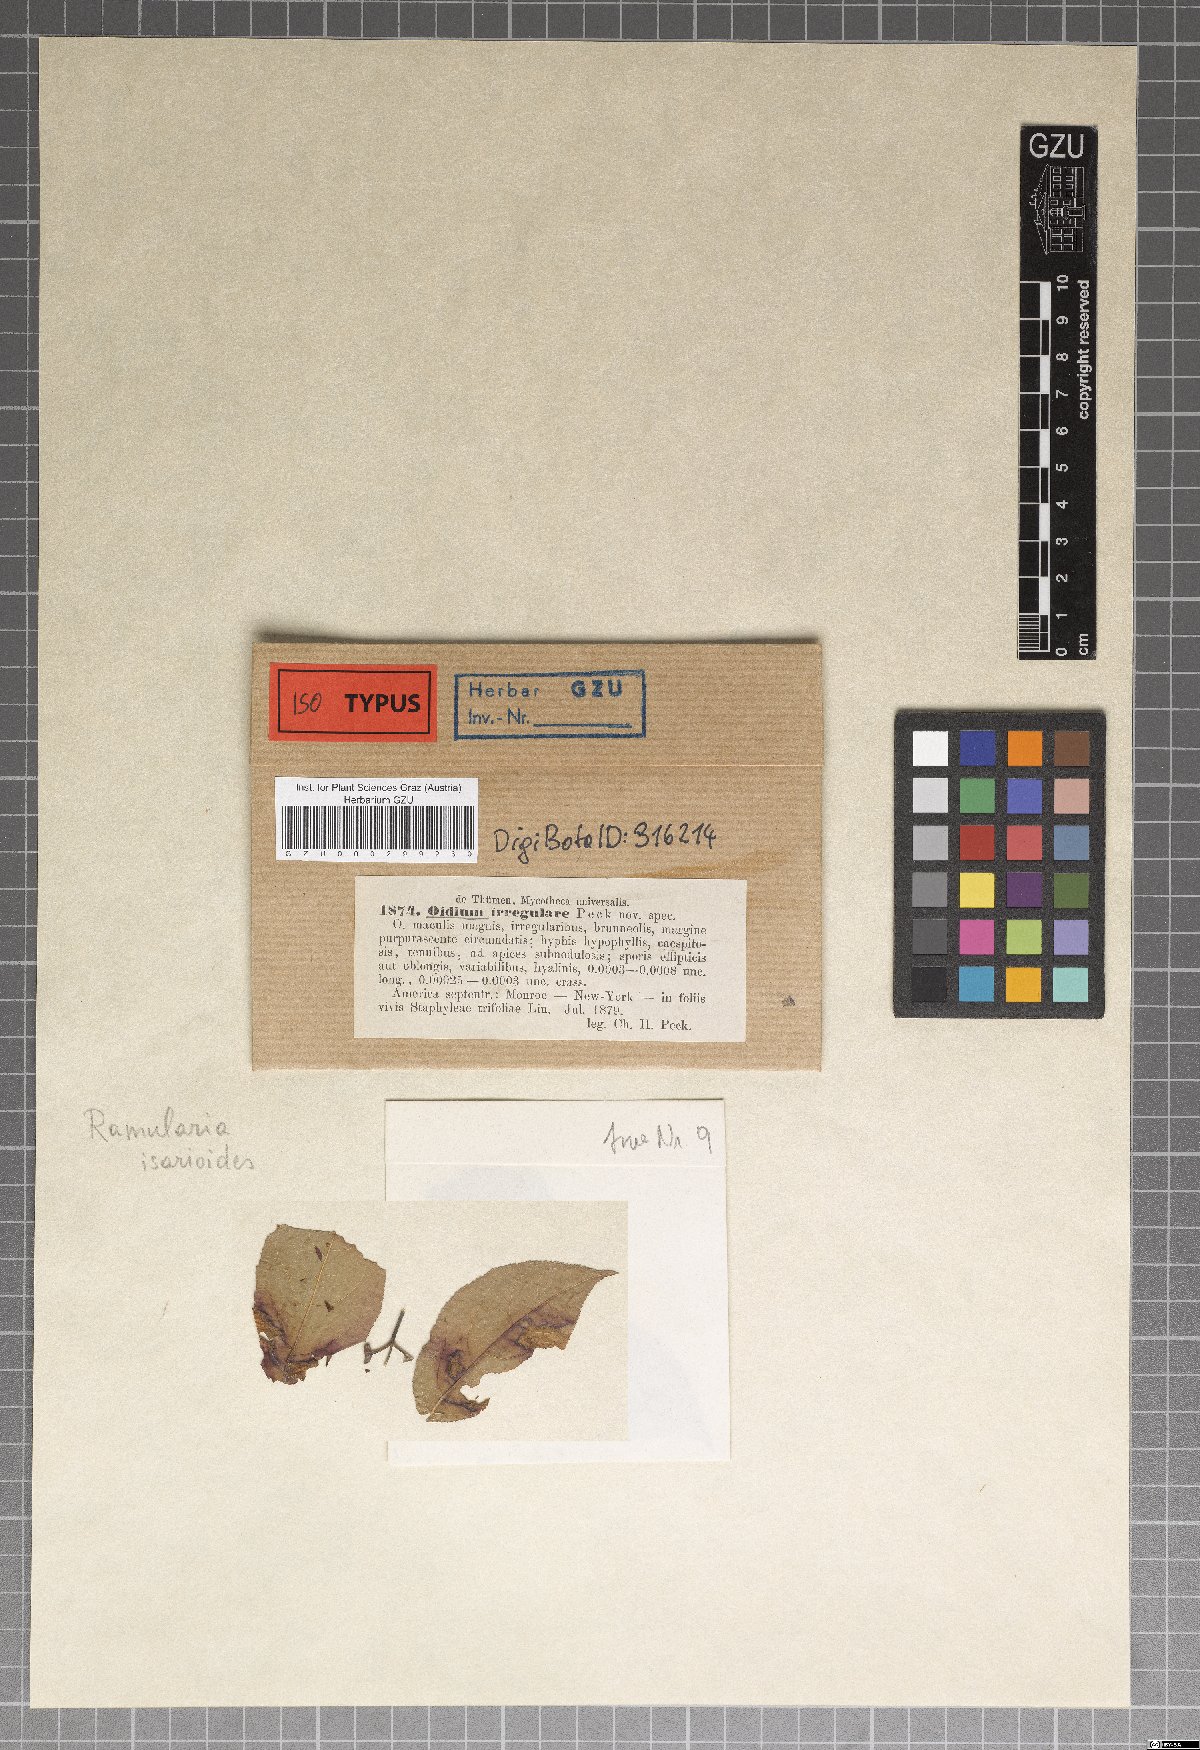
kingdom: Fungi
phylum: Ascomycota
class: Dothideomycetes
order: Mycosphaerellales
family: Mycosphaerellaceae
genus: Phacellium
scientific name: Phacellium irregulare
